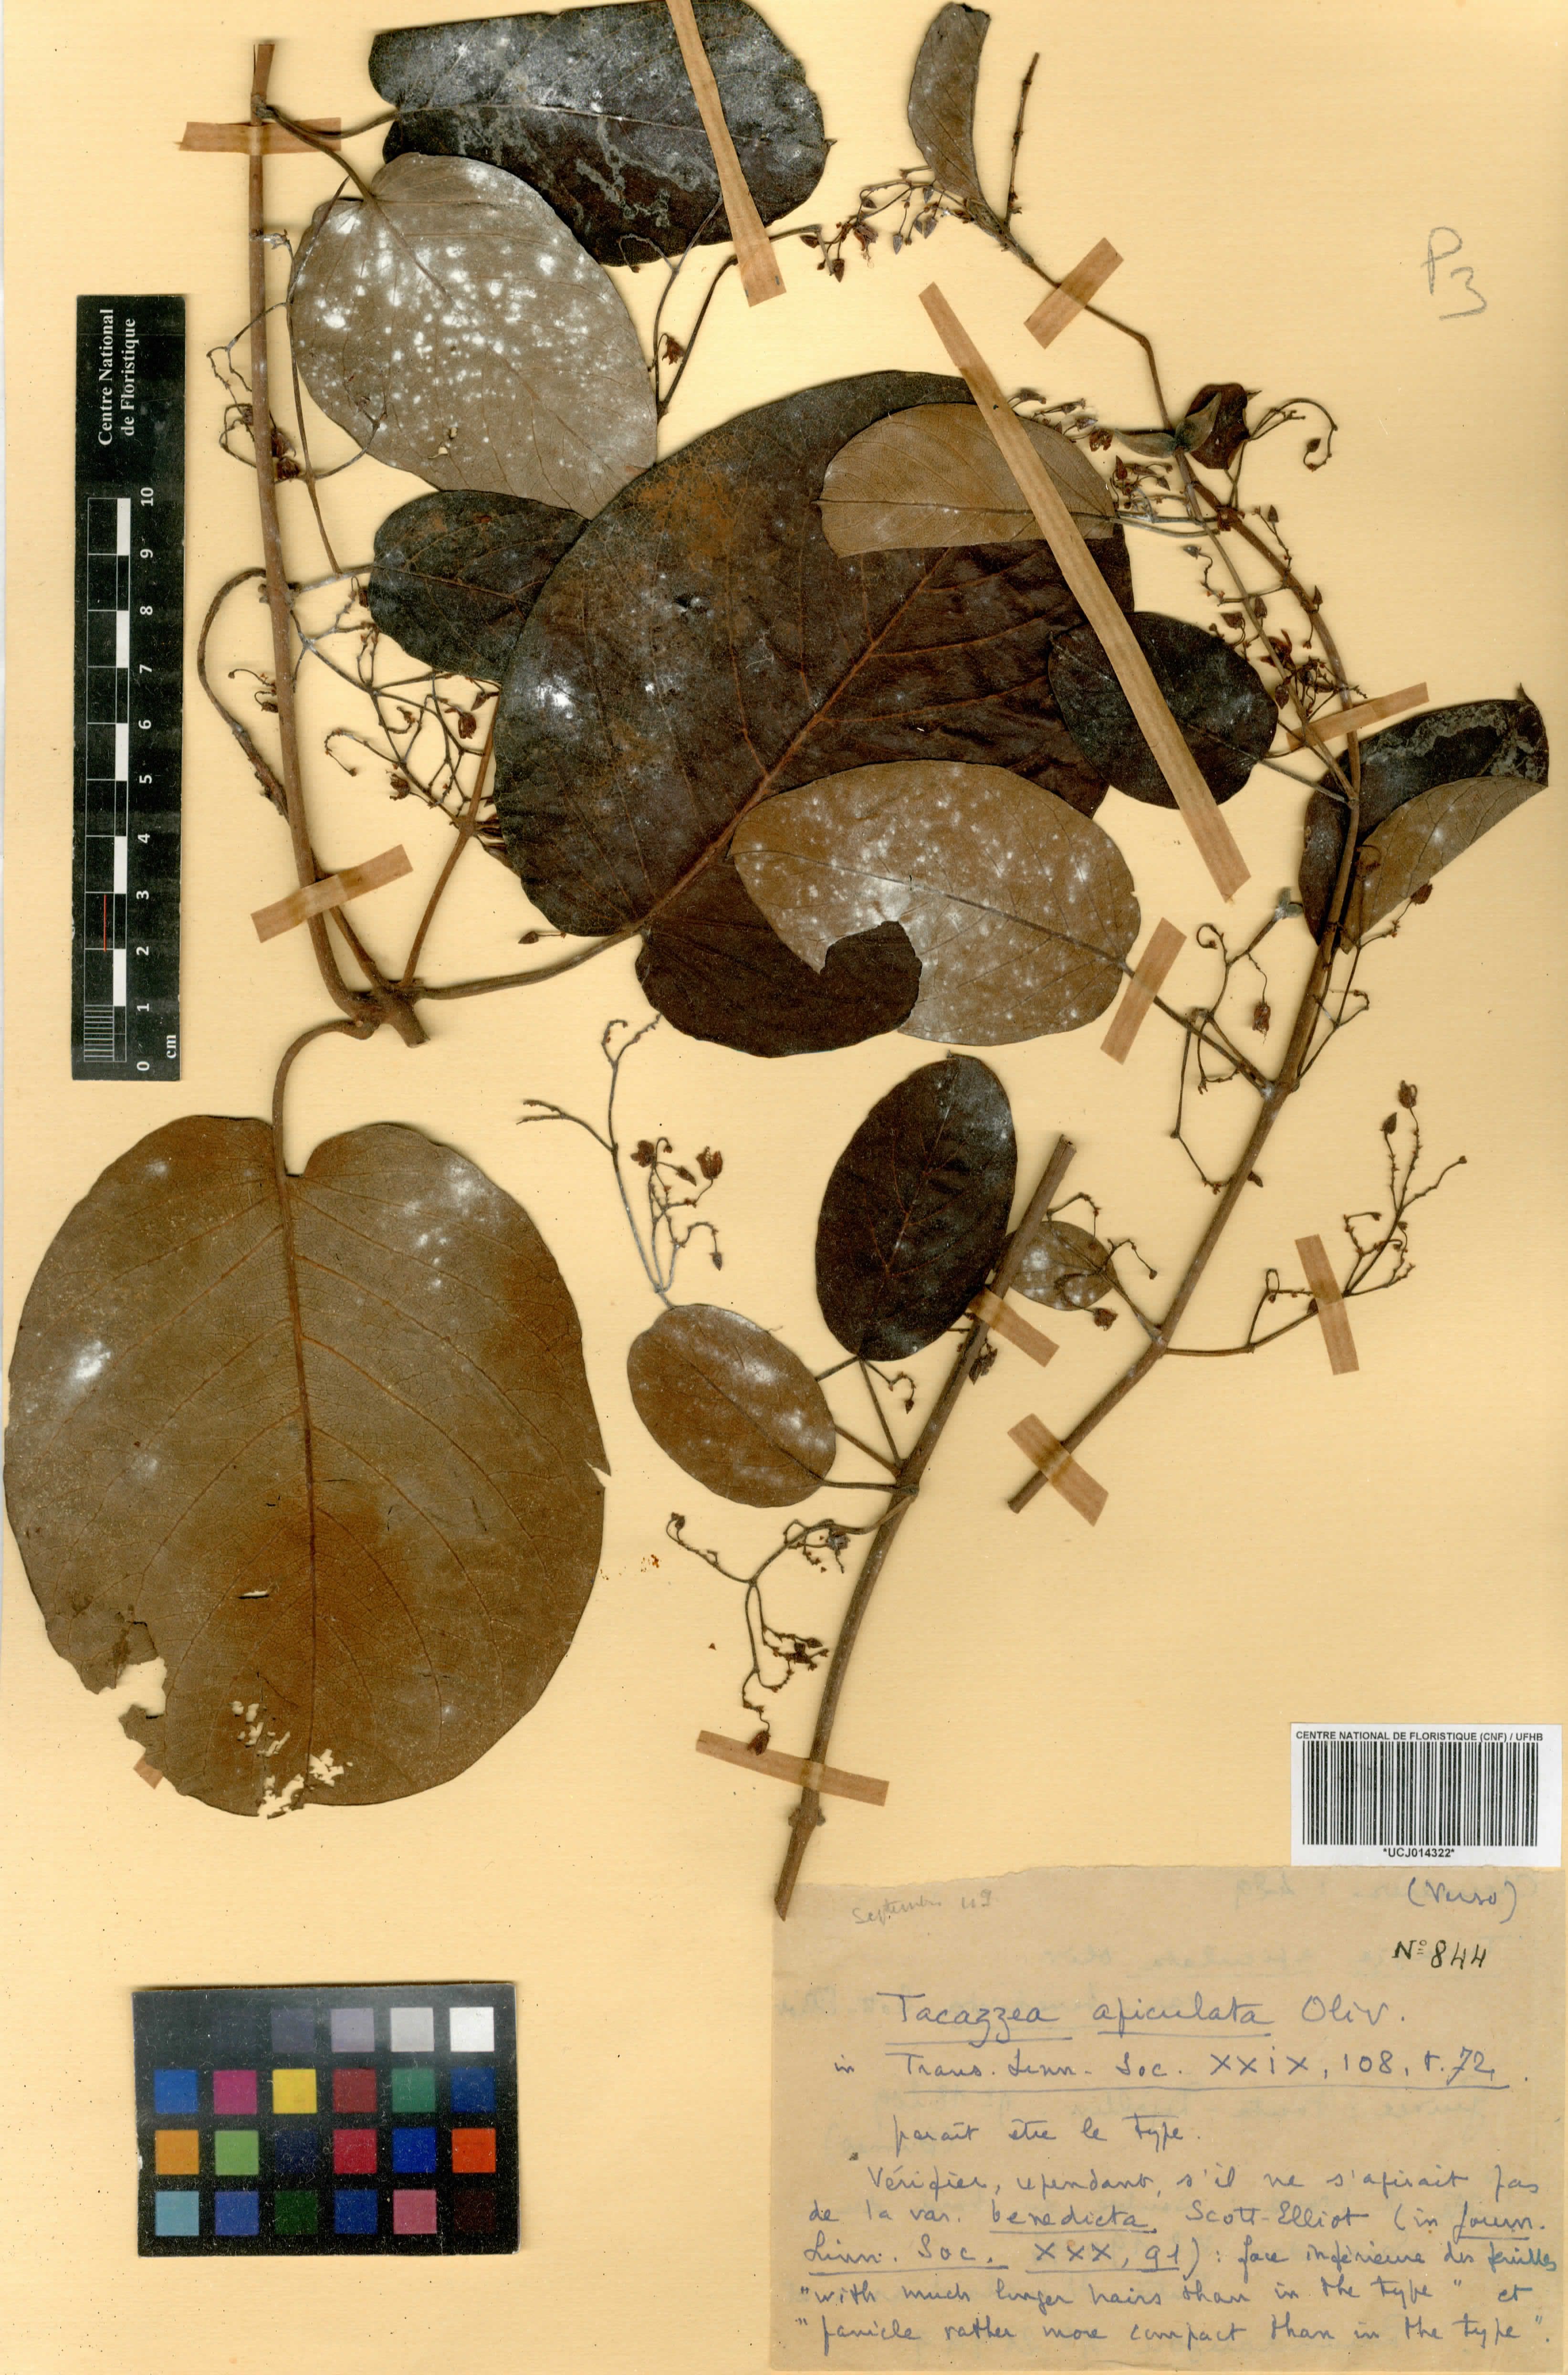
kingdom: Plantae
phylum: Tracheophyta
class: Magnoliopsida
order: Gentianales
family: Apocynaceae
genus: Tacazzea
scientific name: Tacazzea apiculata
